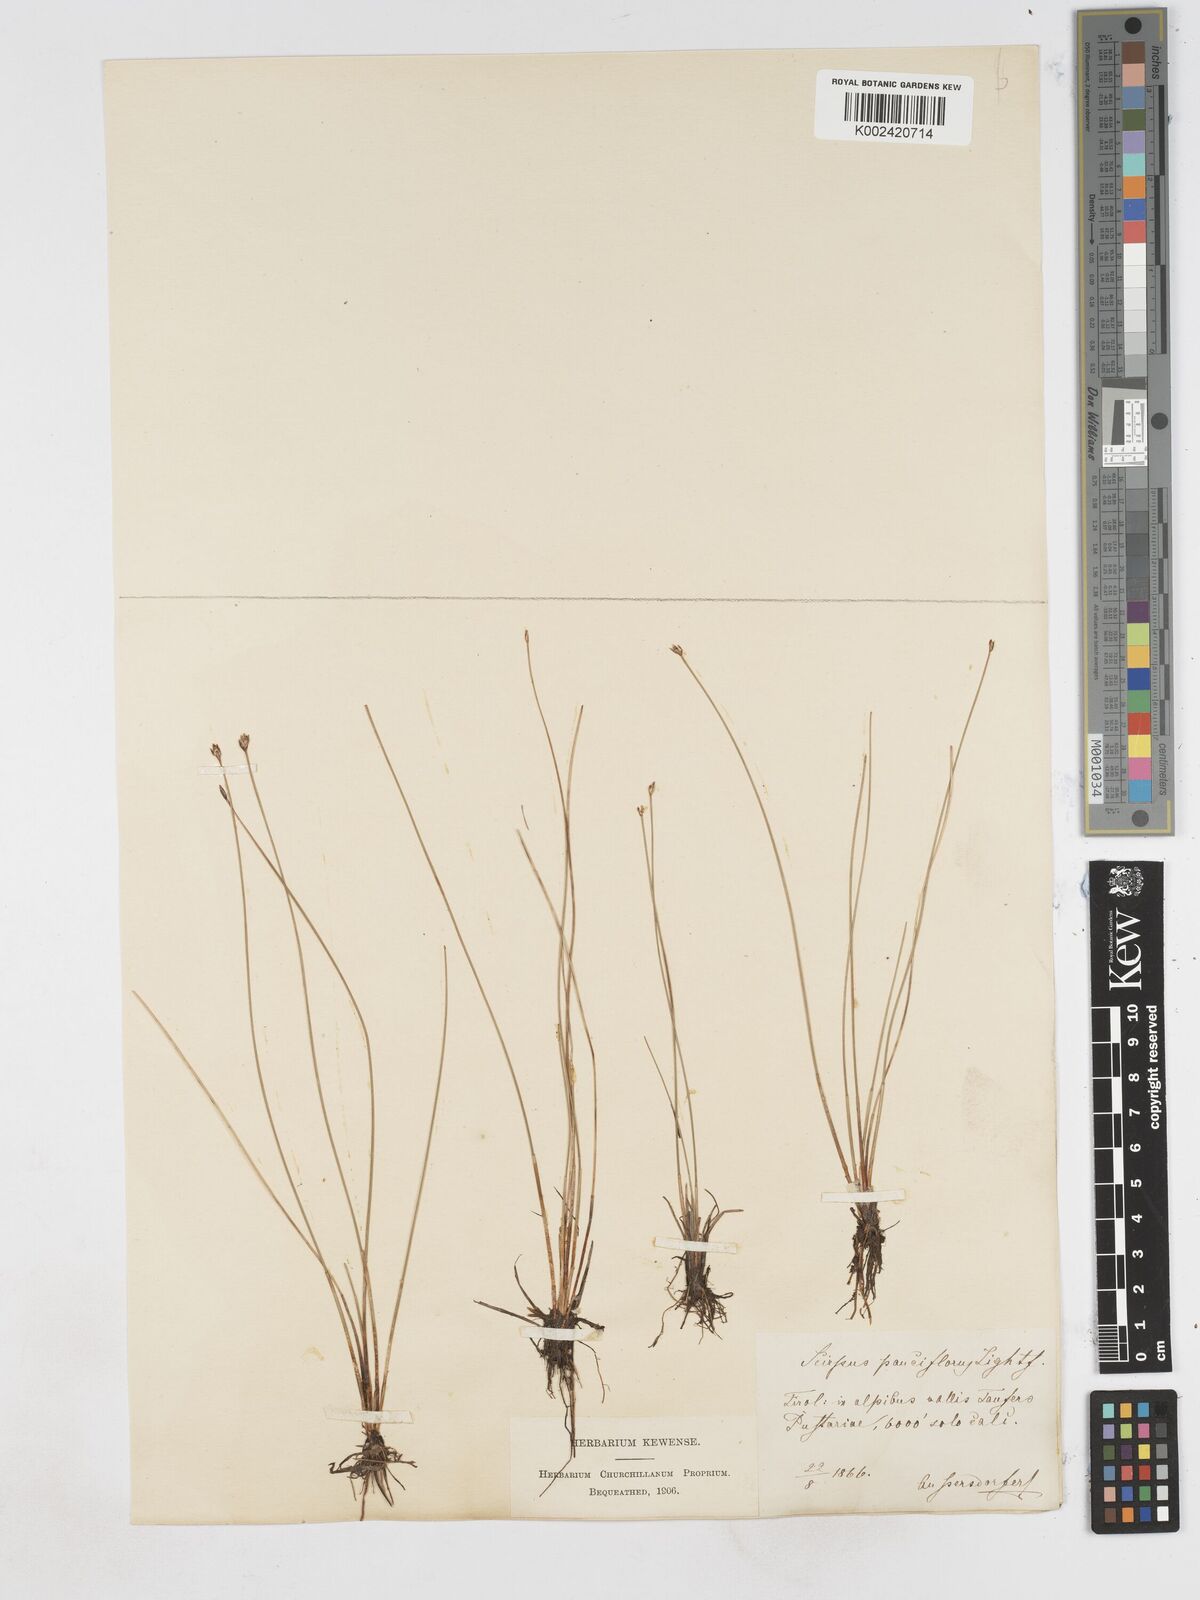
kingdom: Plantae
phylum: Tracheophyta
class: Liliopsida
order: Poales
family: Cyperaceae
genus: Eleocharis
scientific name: Eleocharis quinqueflora
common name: Few-flowered spike-rush
